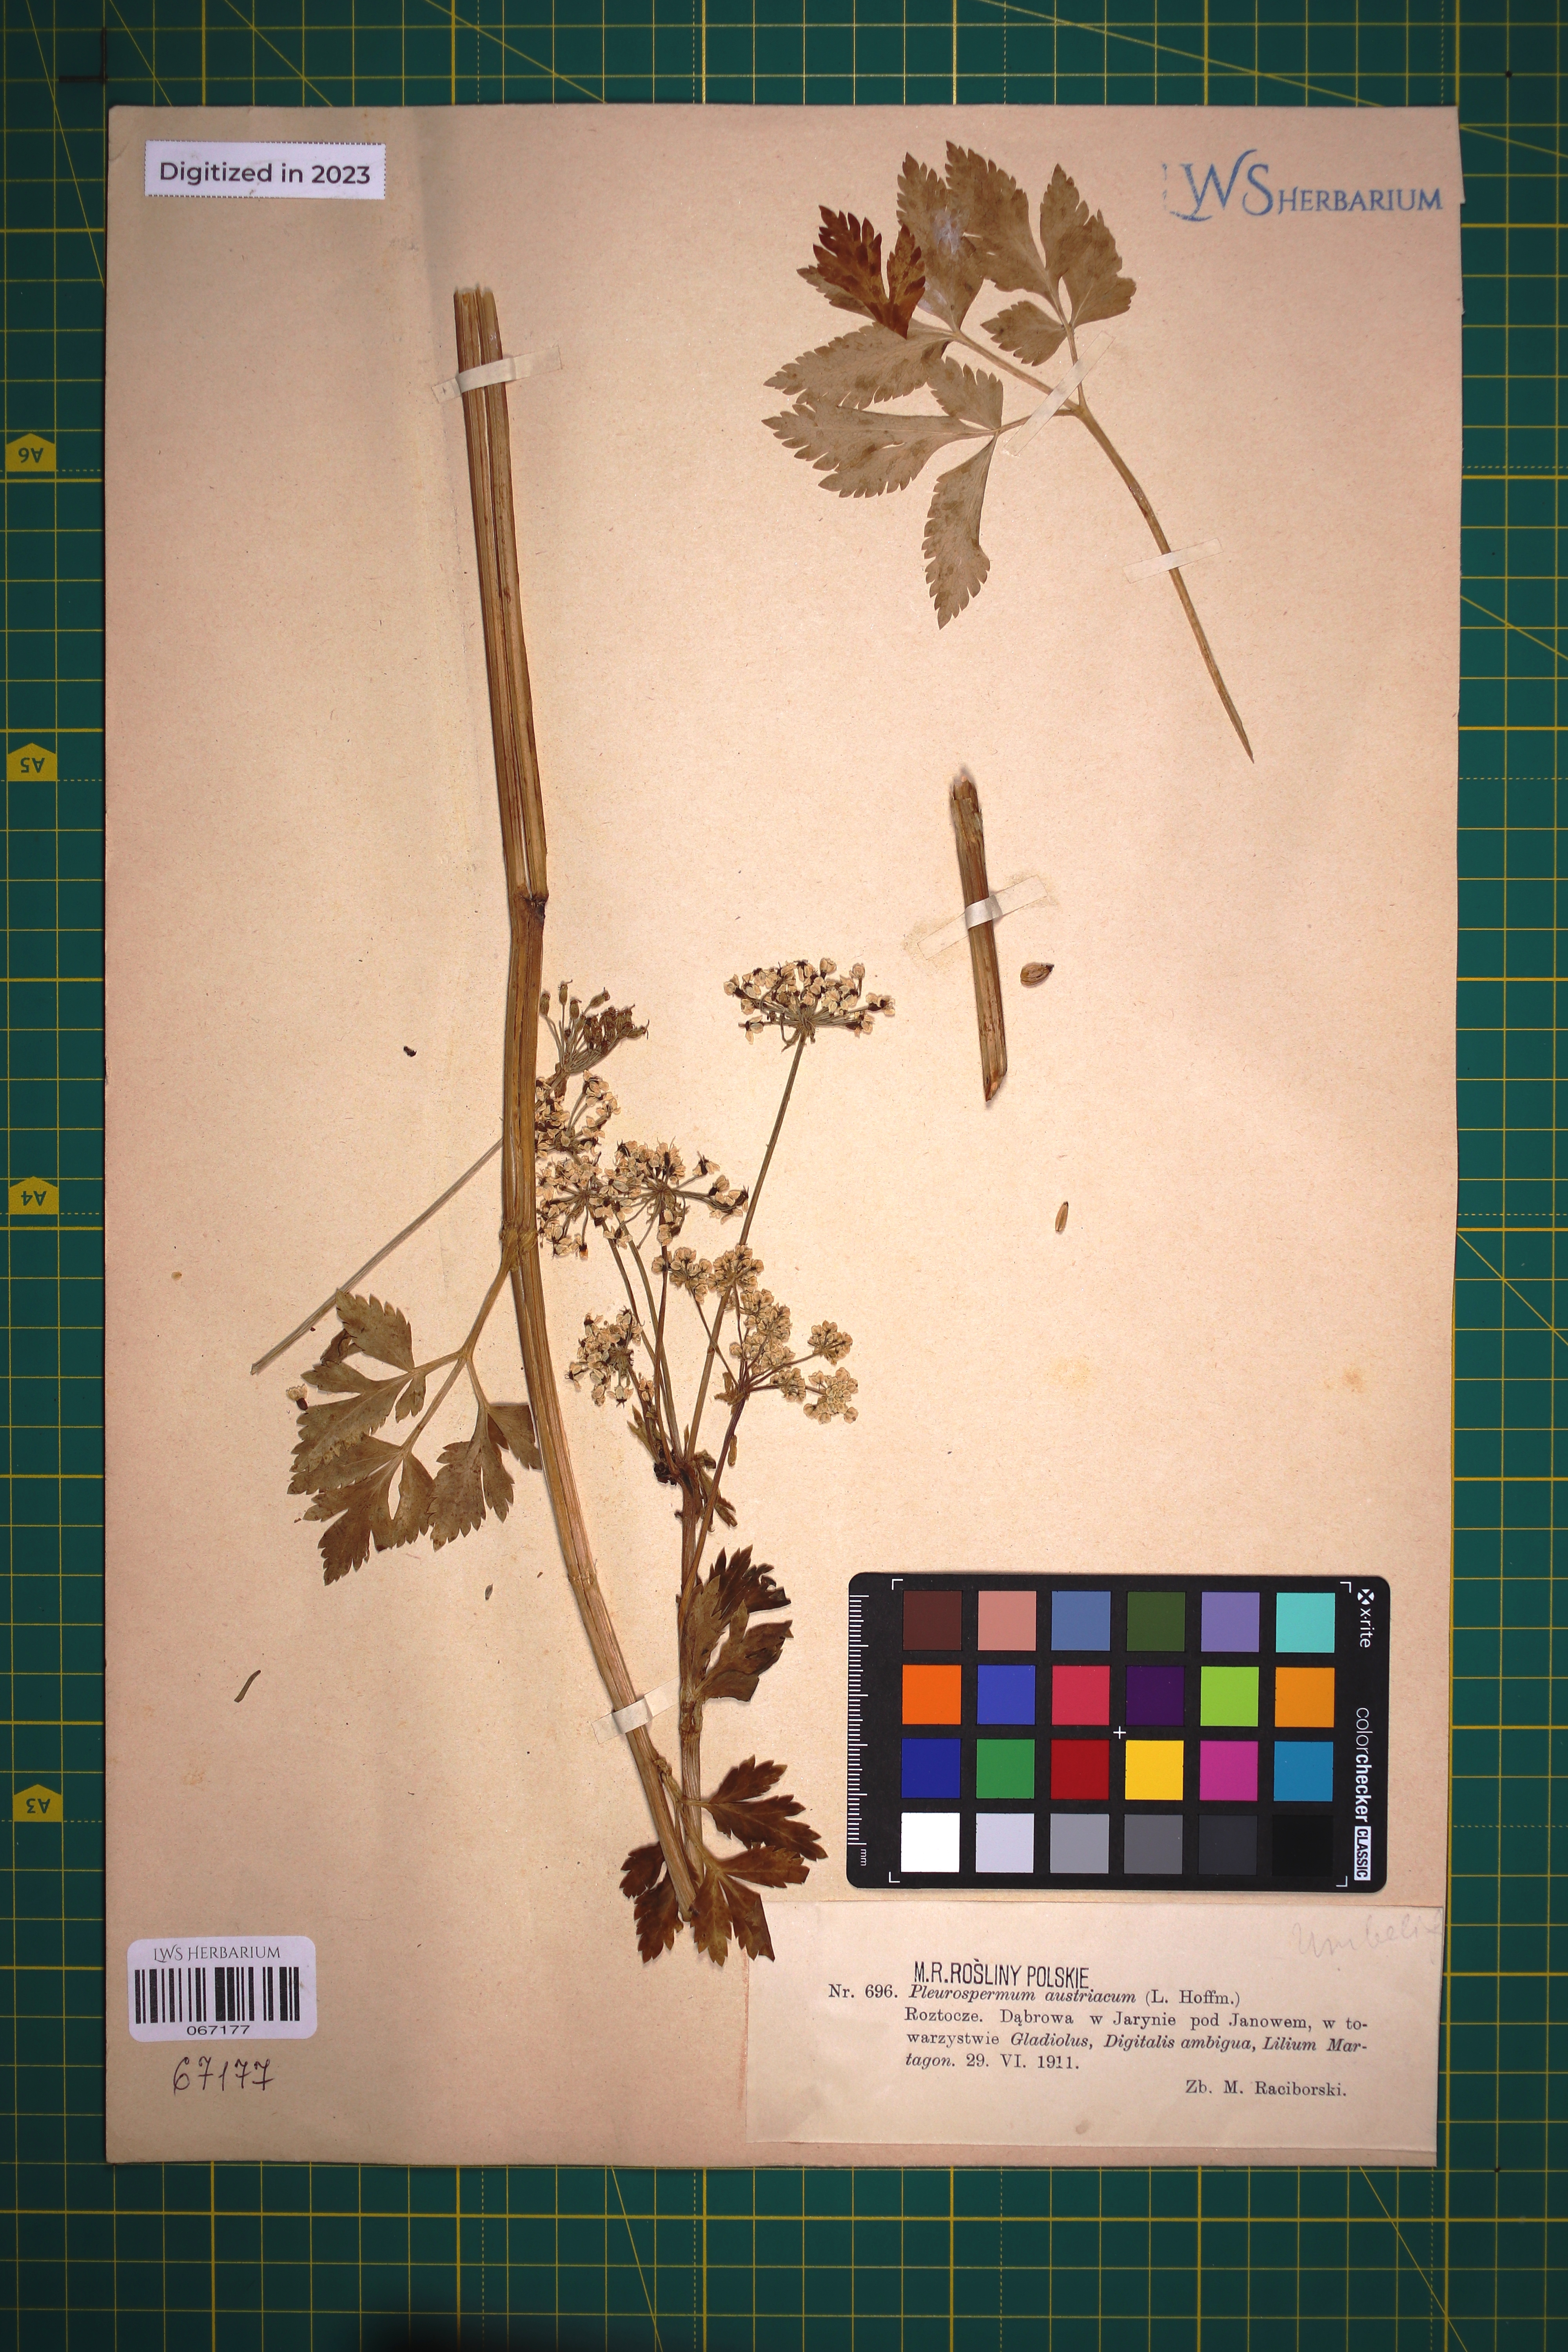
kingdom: Plantae
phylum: Tracheophyta
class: Magnoliopsida
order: Apiales
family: Apiaceae
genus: Pleurospermum
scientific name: Pleurospermum austriacum
